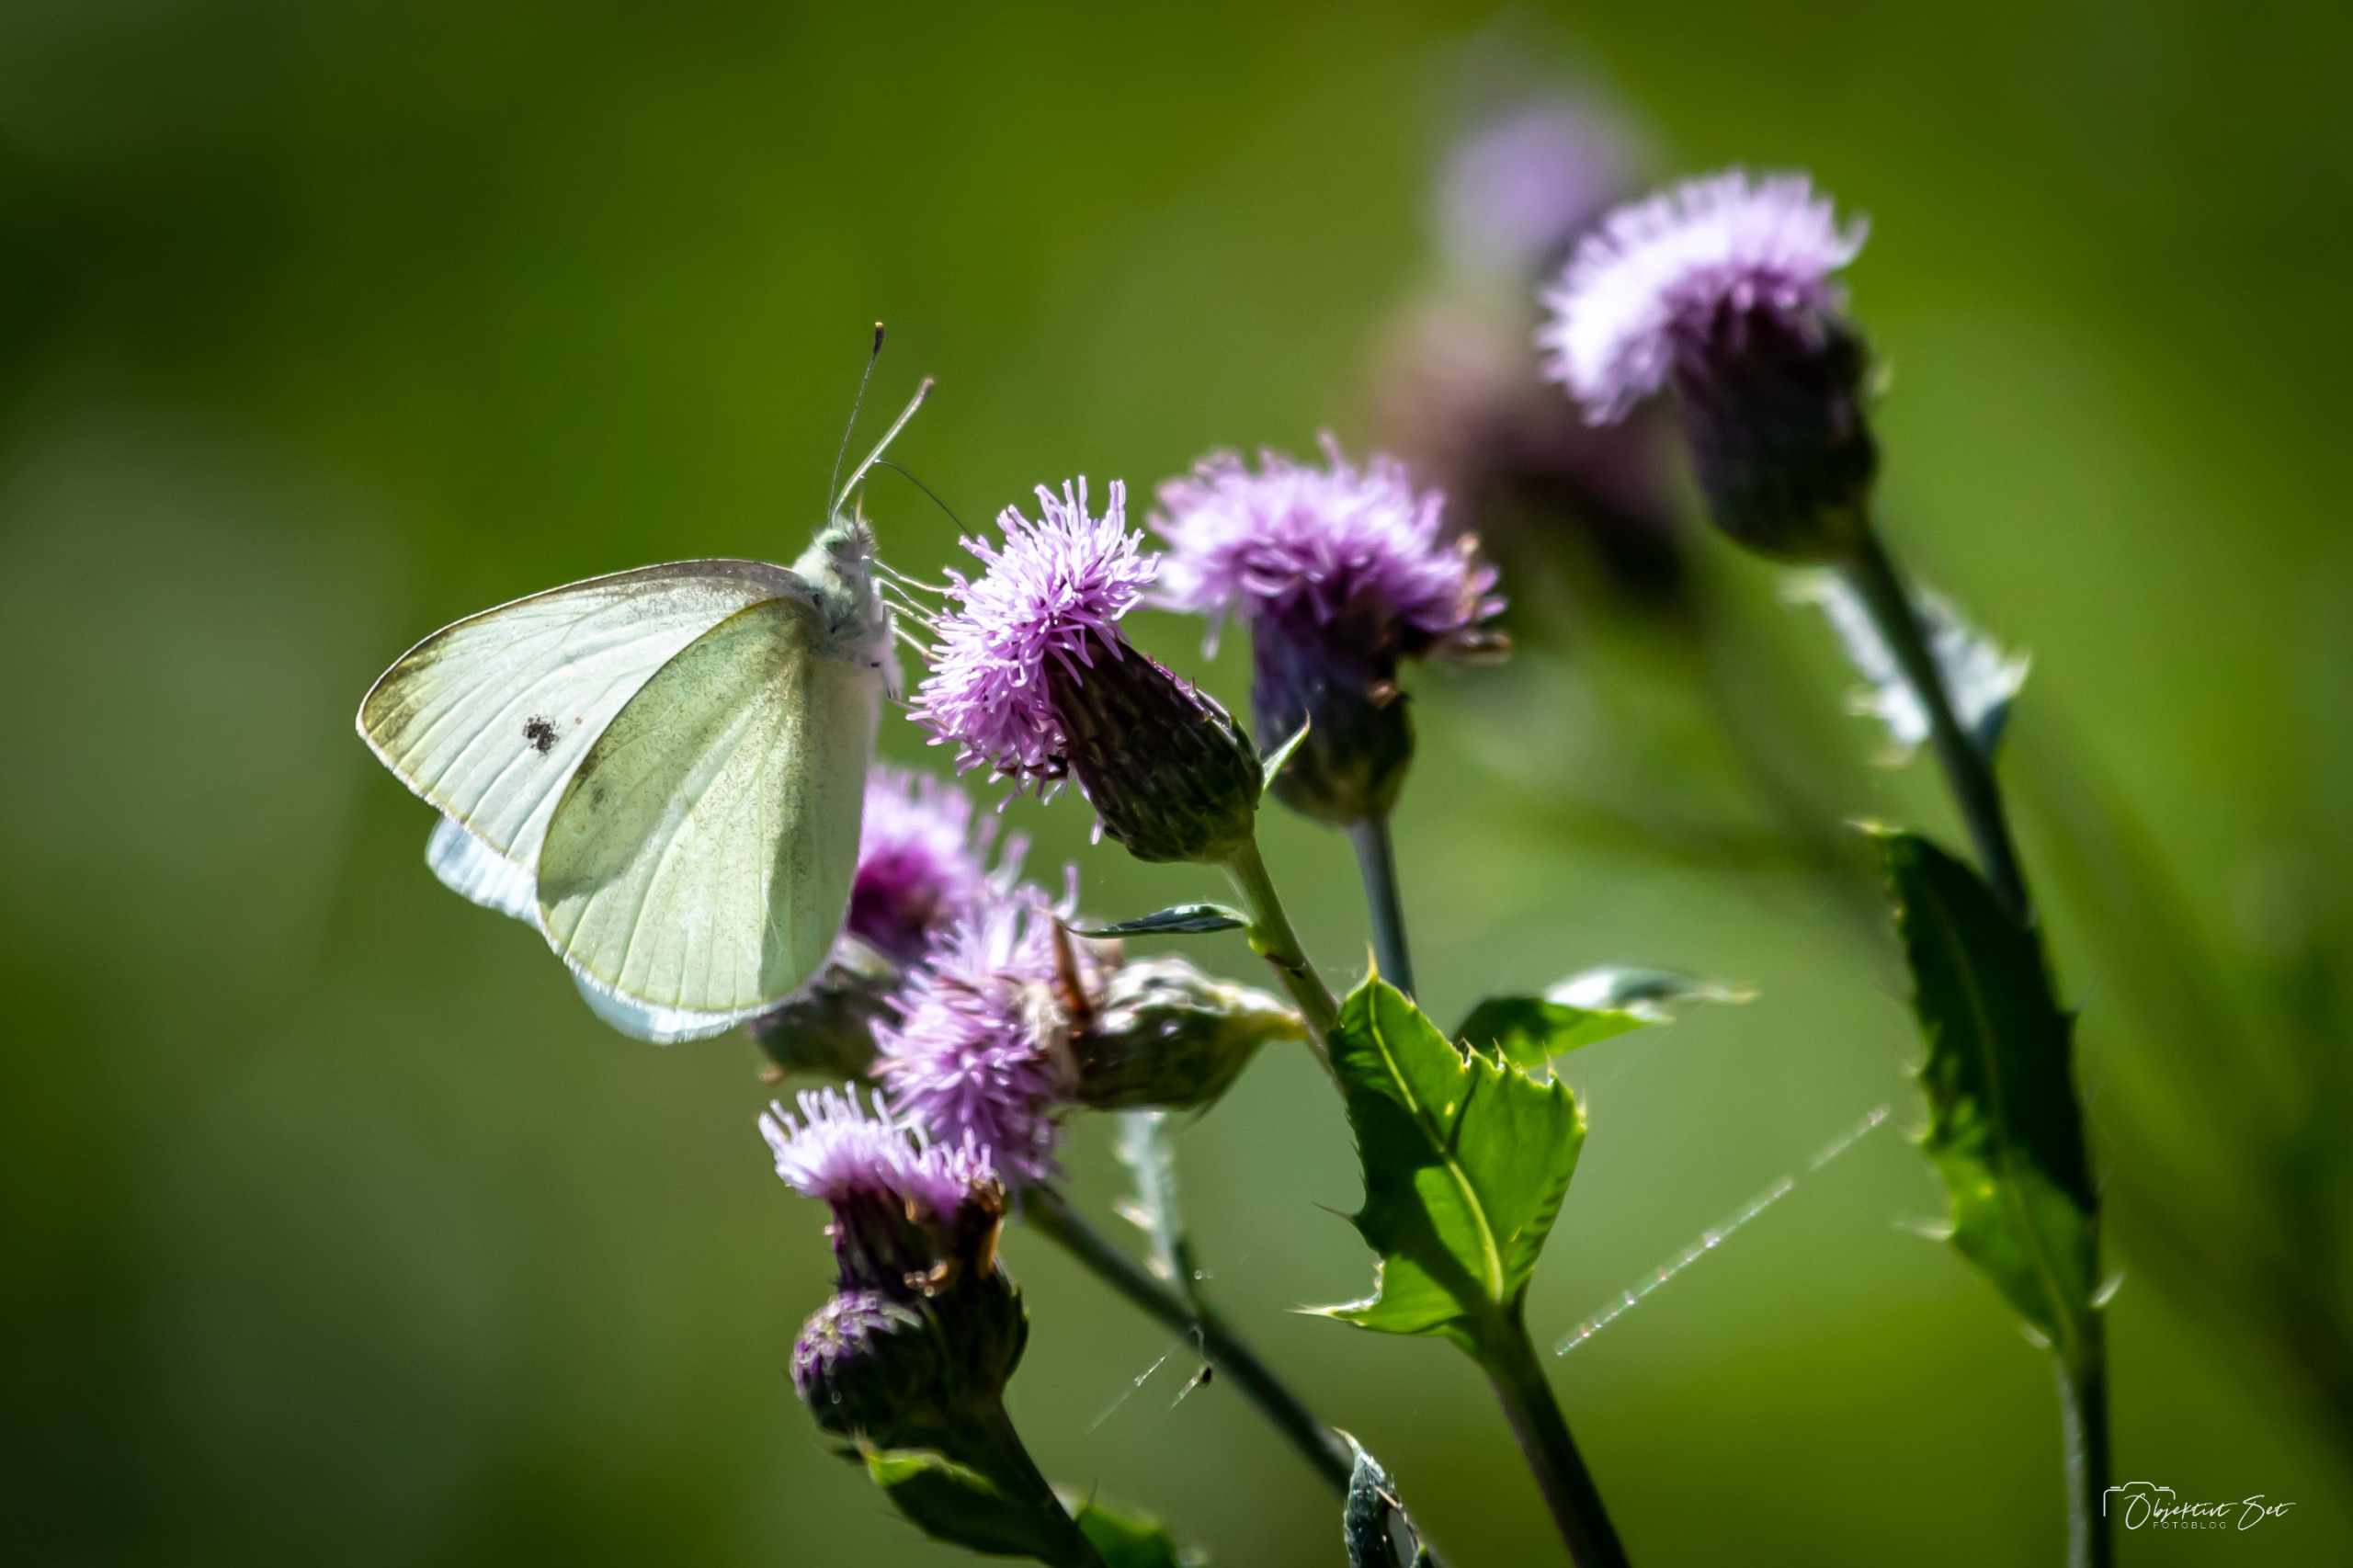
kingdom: Animalia
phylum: Arthropoda
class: Insecta
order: Lepidoptera
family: Pieridae
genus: Pieris
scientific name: Pieris rapae
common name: Lille kålsommerfugl
